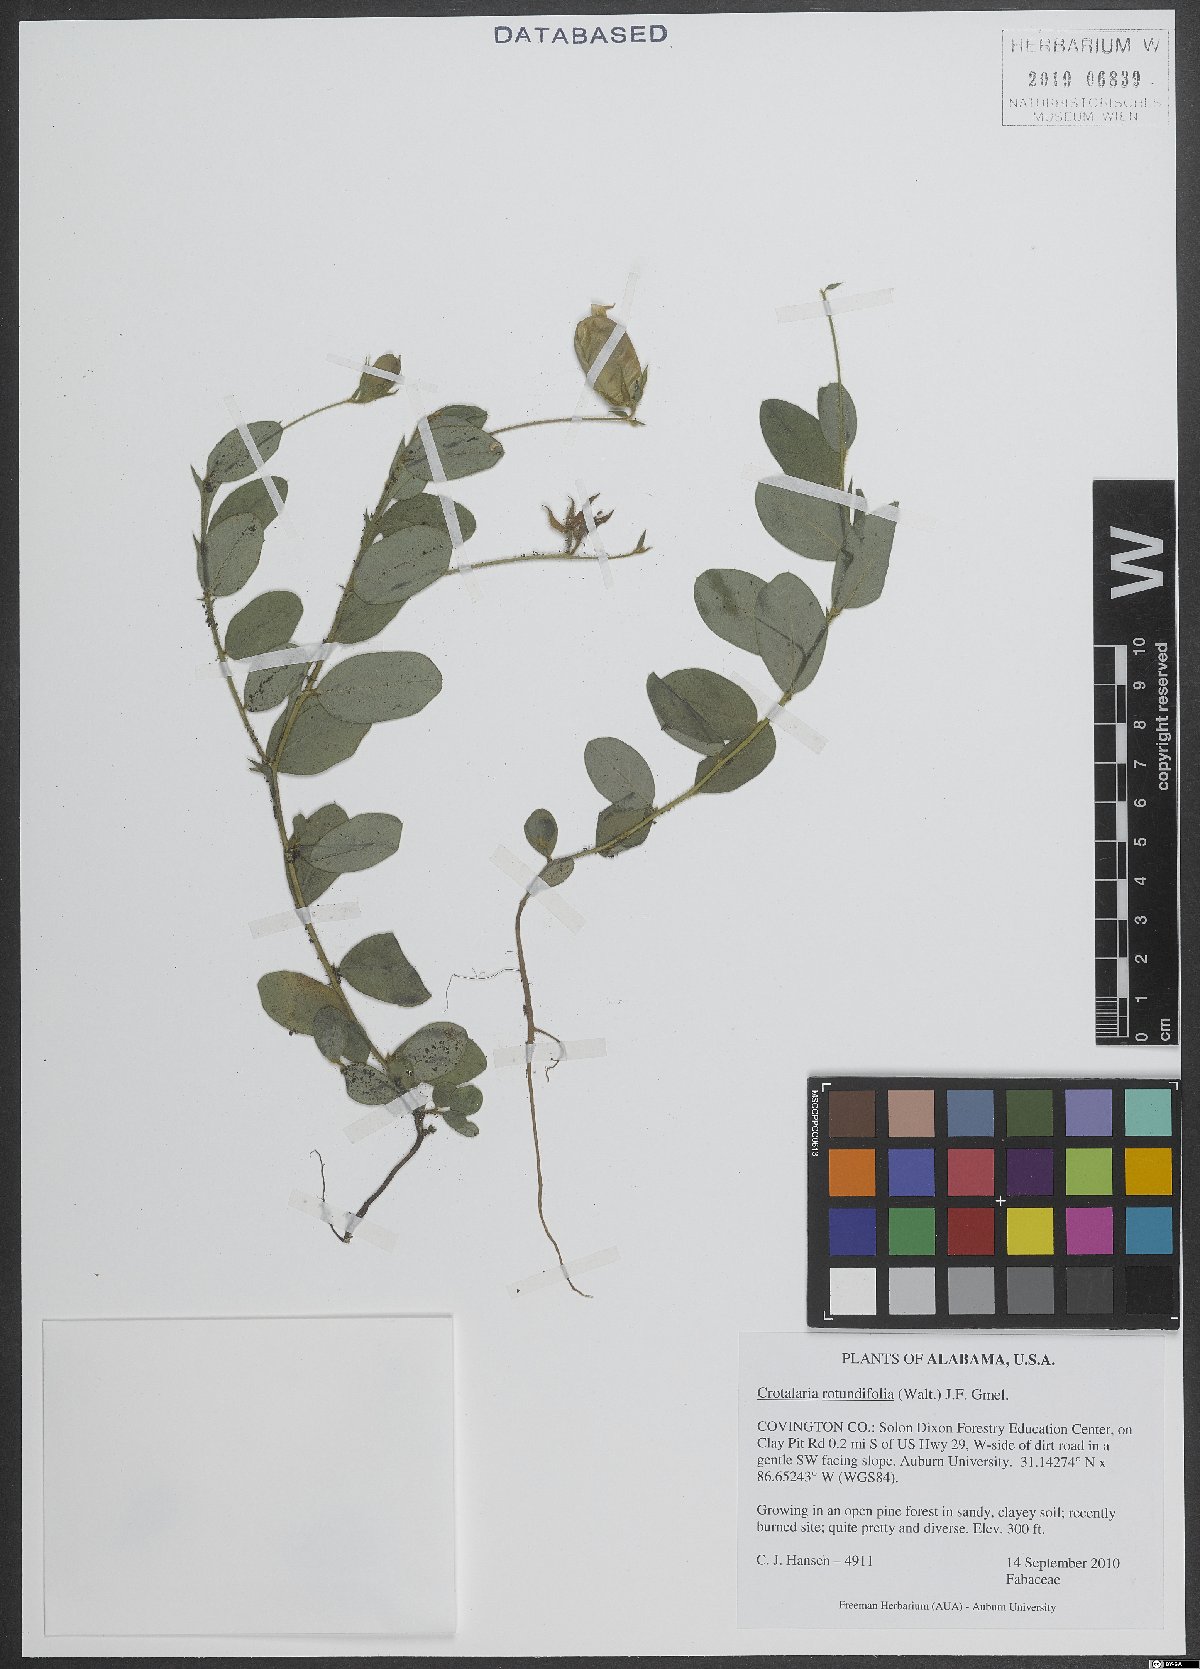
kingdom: Plantae
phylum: Tracheophyta
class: Magnoliopsida
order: Fabales
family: Fabaceae
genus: Crotalaria
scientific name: Crotalaria rotundifolia
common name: Prostrate rattlebox
